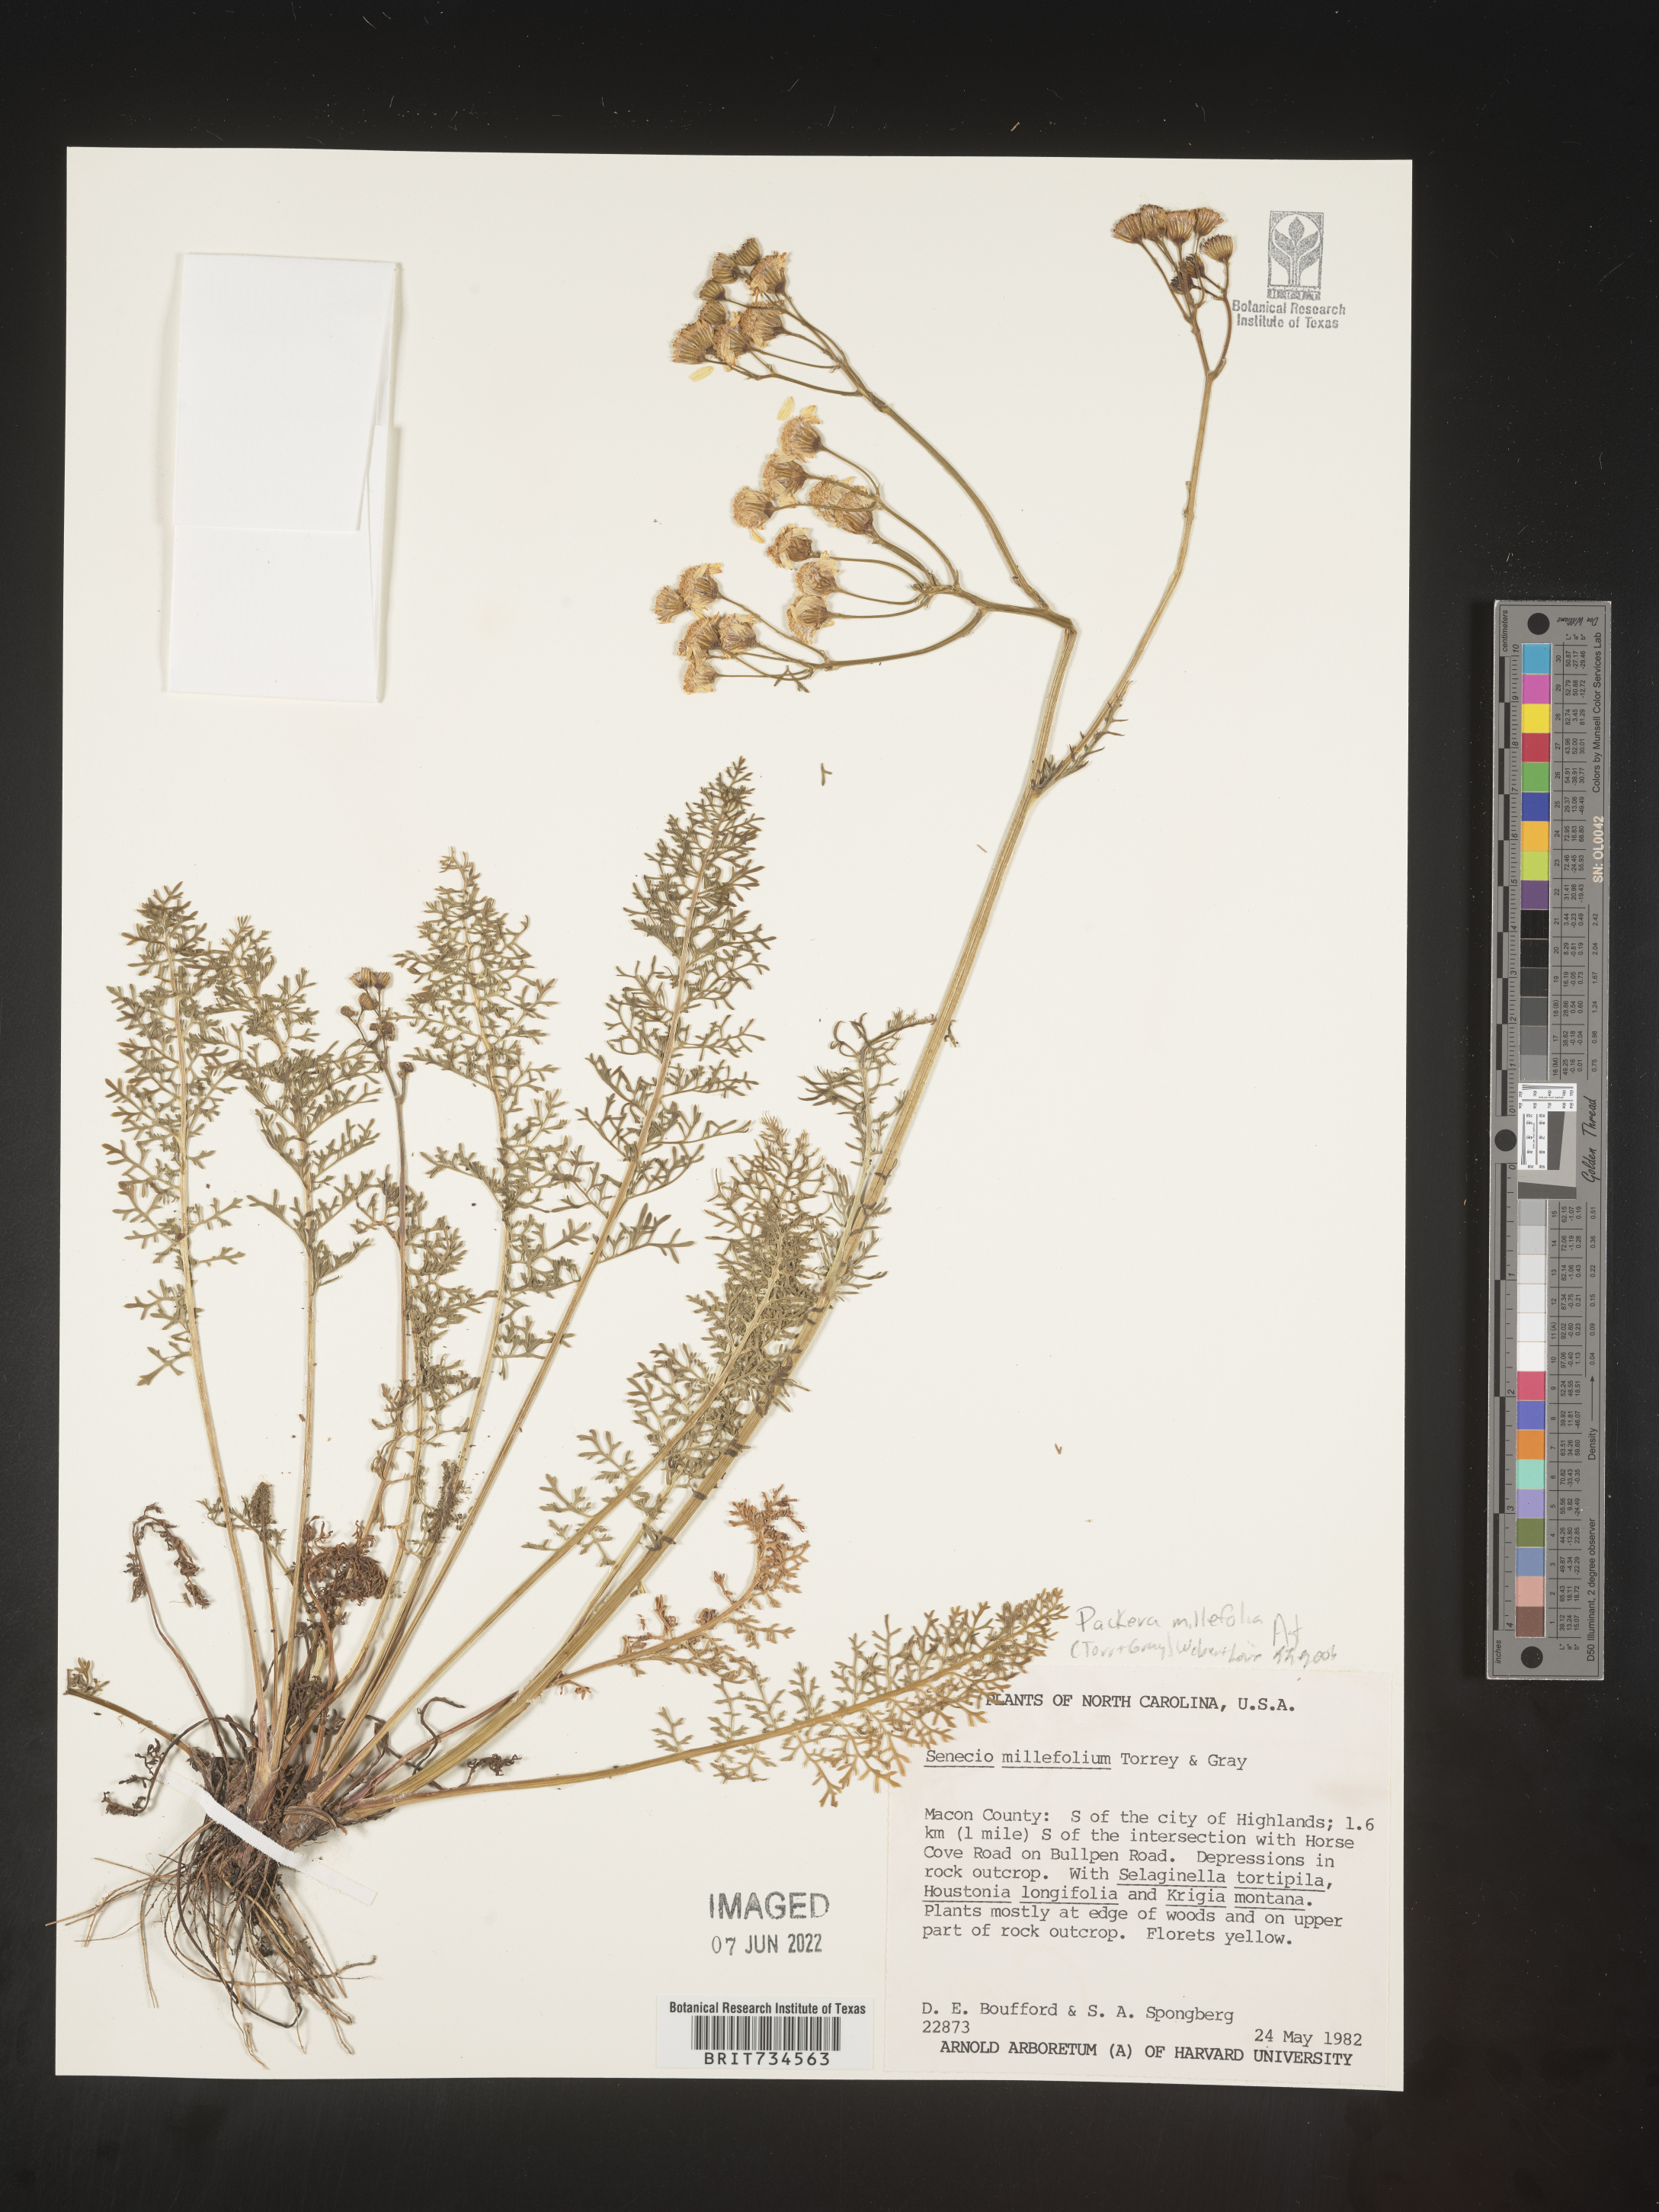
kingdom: Plantae
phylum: Tracheophyta
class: Magnoliopsida
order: Asterales
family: Asteraceae
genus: Packera
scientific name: Packera millefolia
